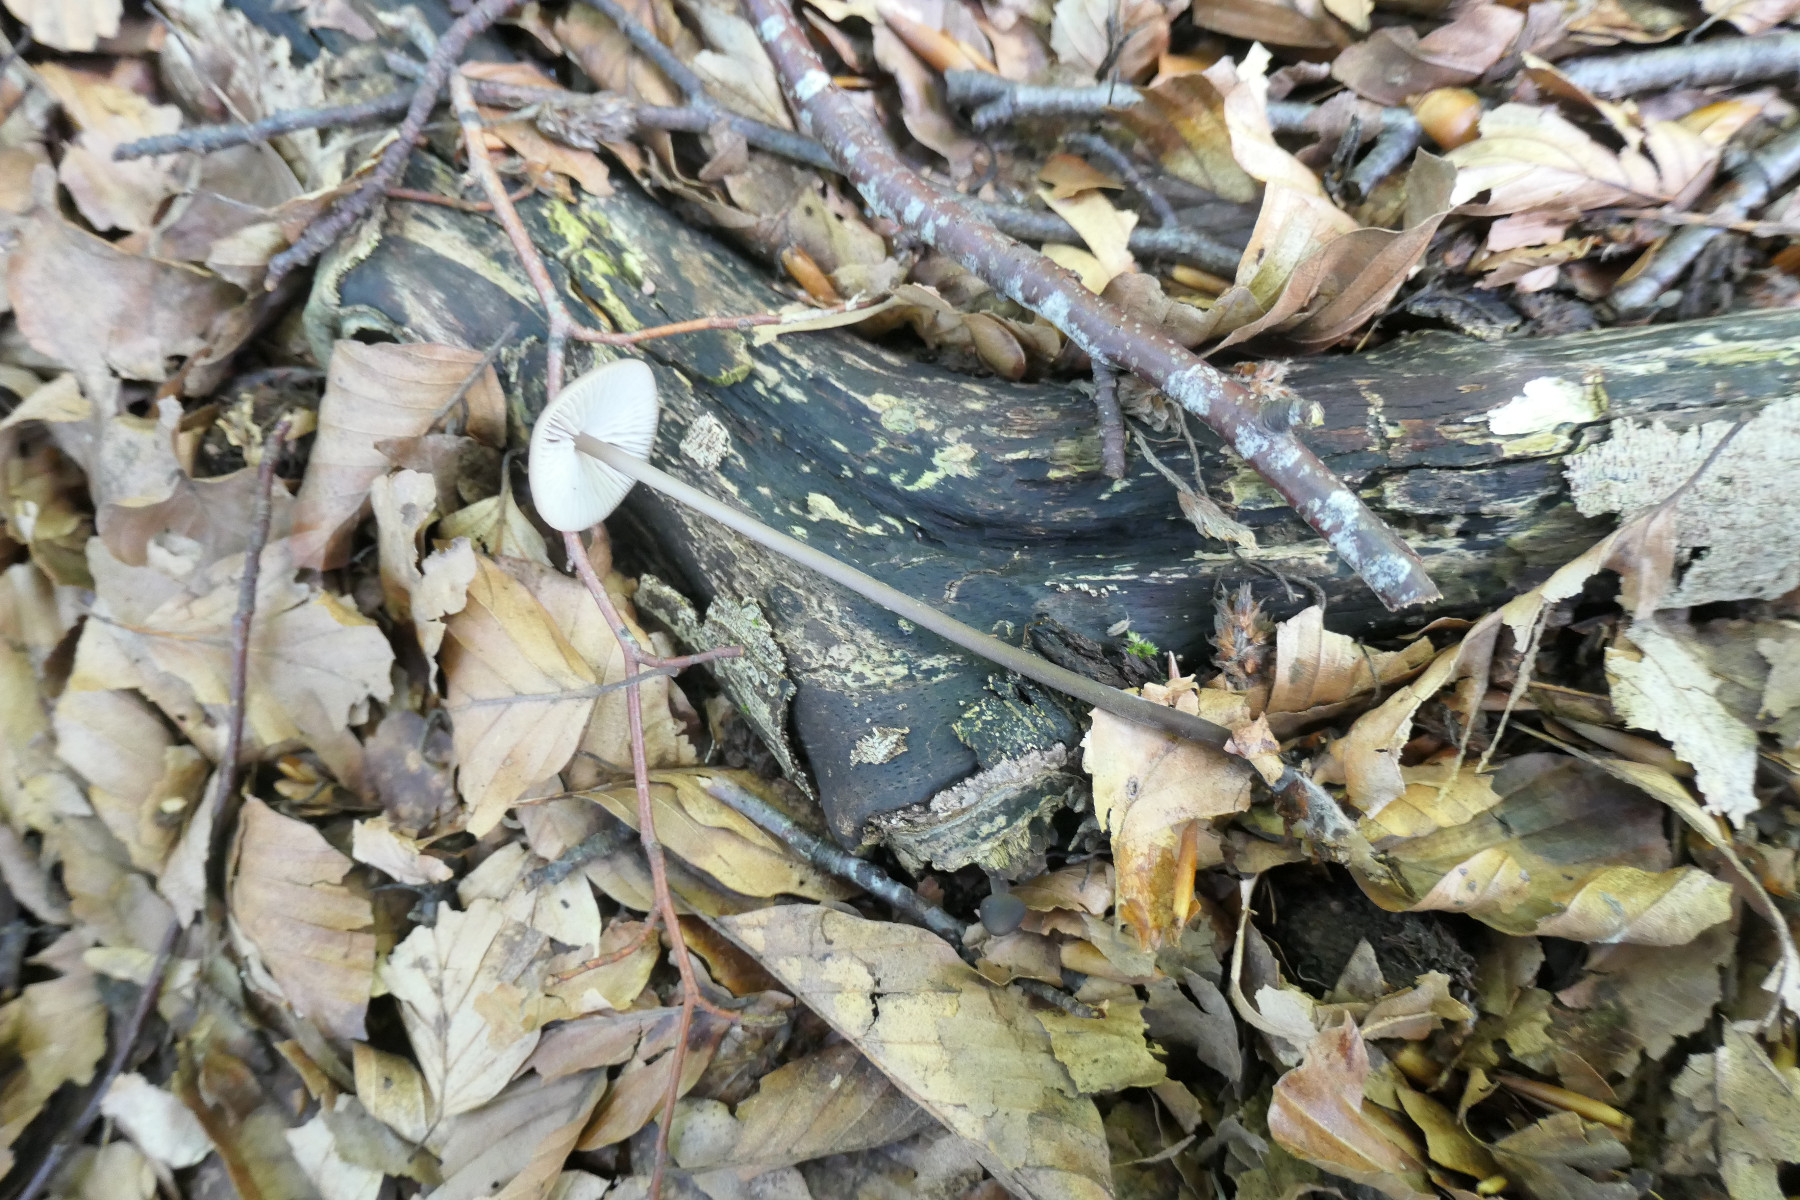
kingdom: Fungi
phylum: Basidiomycota
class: Agaricomycetes
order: Agaricales
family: Omphalotaceae
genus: Mycetinis
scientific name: Mycetinis alliaceus
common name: stor løghat
